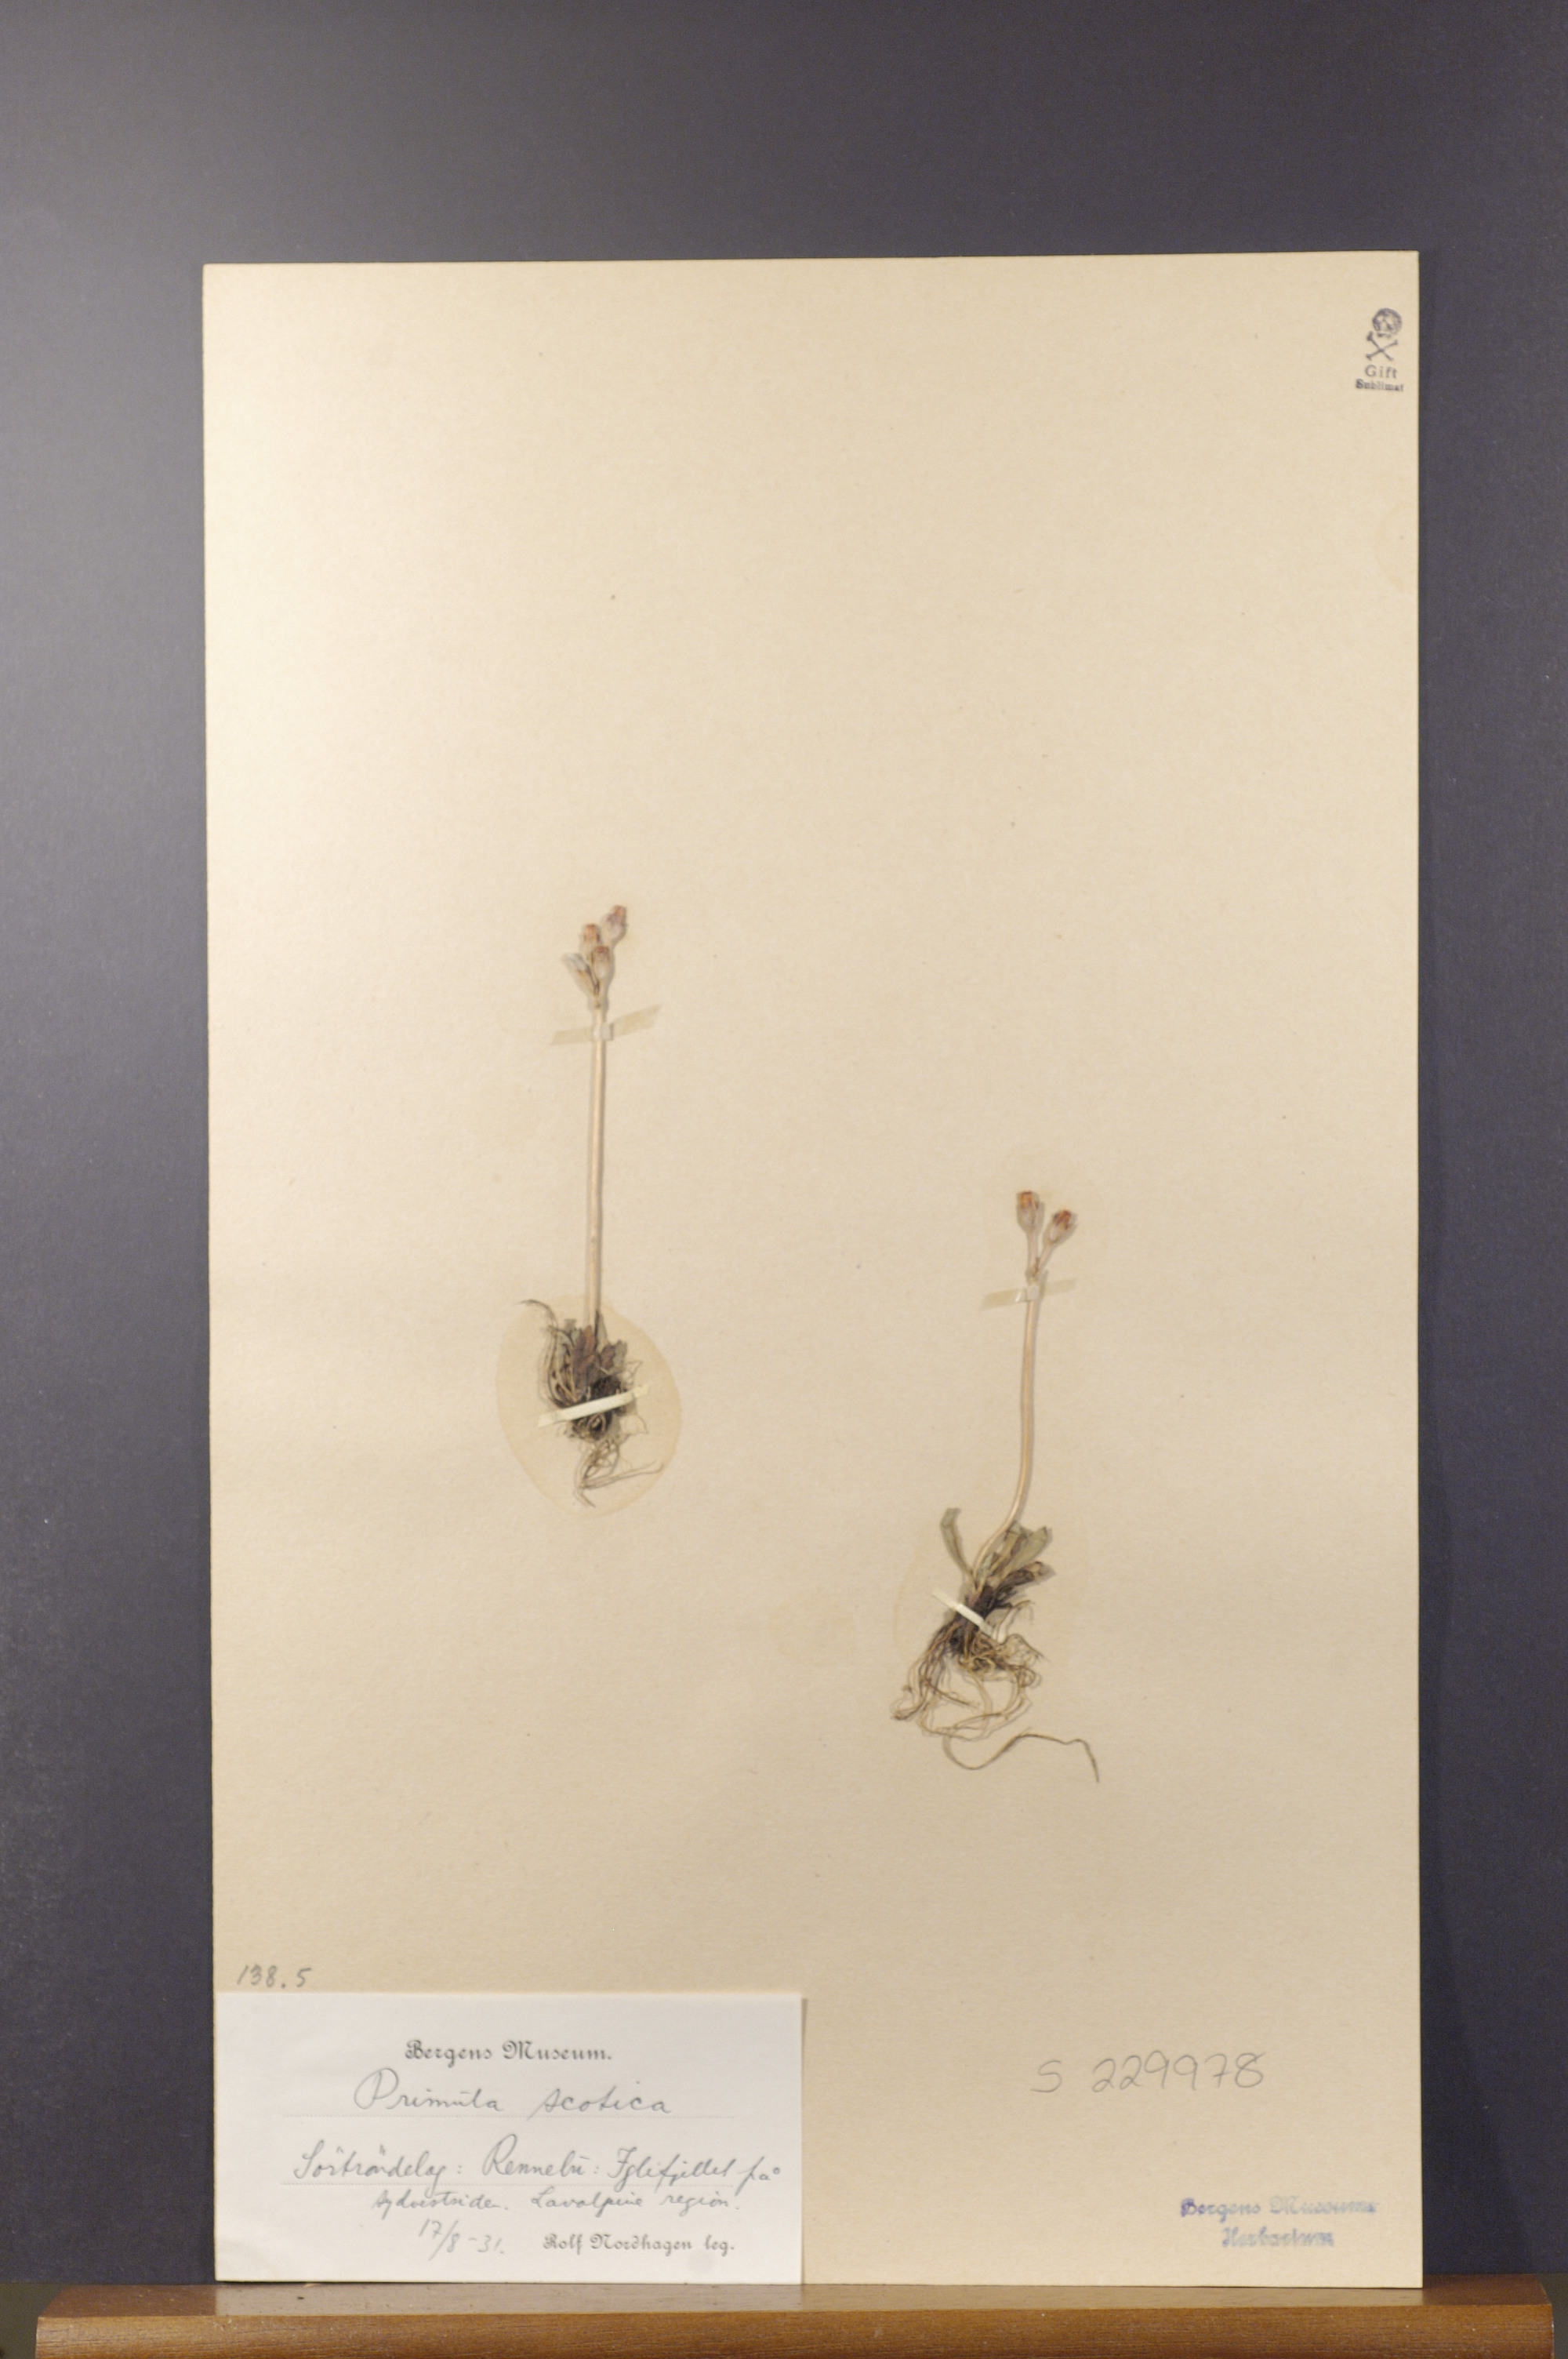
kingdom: Plantae
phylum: Tracheophyta
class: Magnoliopsida
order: Ericales
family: Primulaceae
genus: Primula
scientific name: Primula scandinavica
